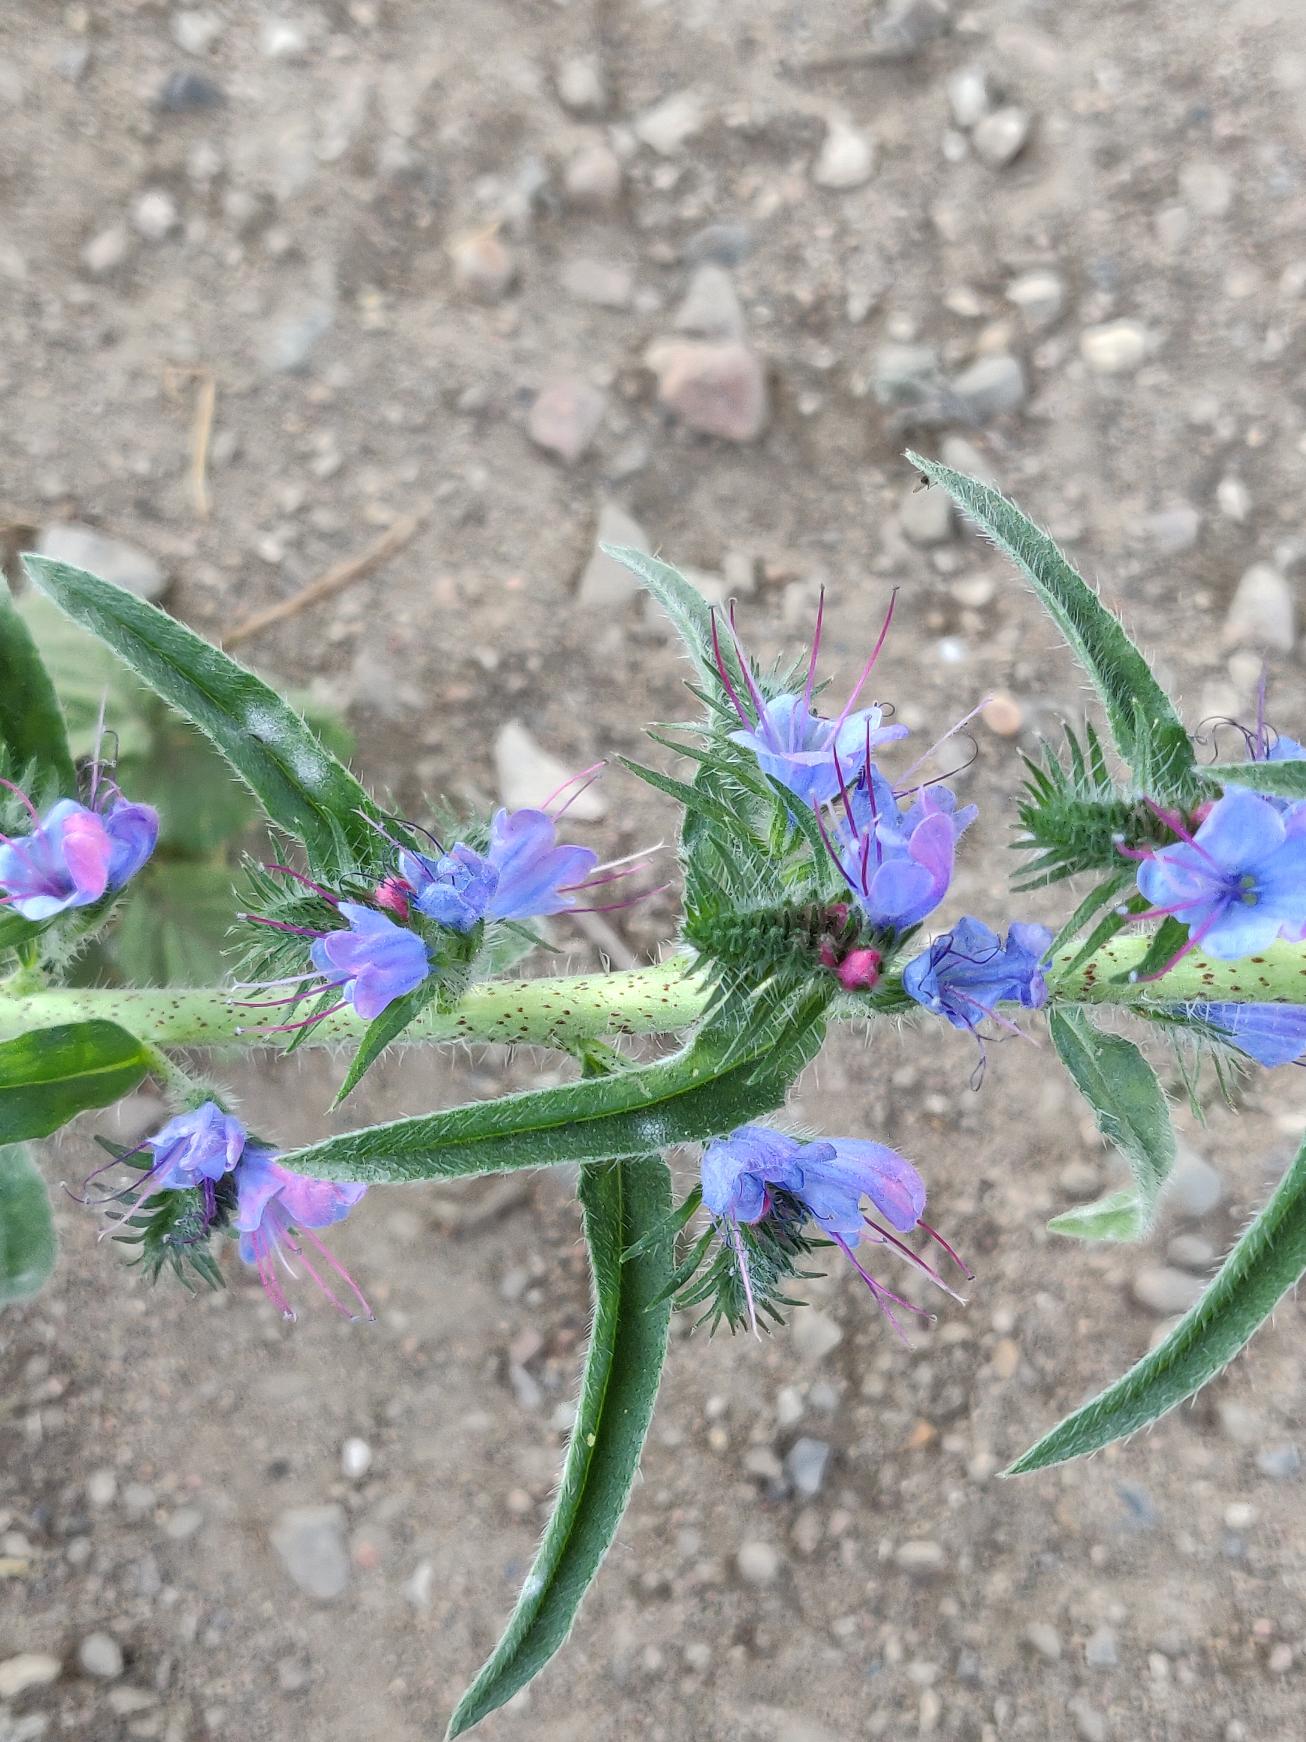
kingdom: Plantae
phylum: Tracheophyta
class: Magnoliopsida
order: Boraginales
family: Boraginaceae
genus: Echium
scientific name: Echium vulgare
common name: Slangehoved
